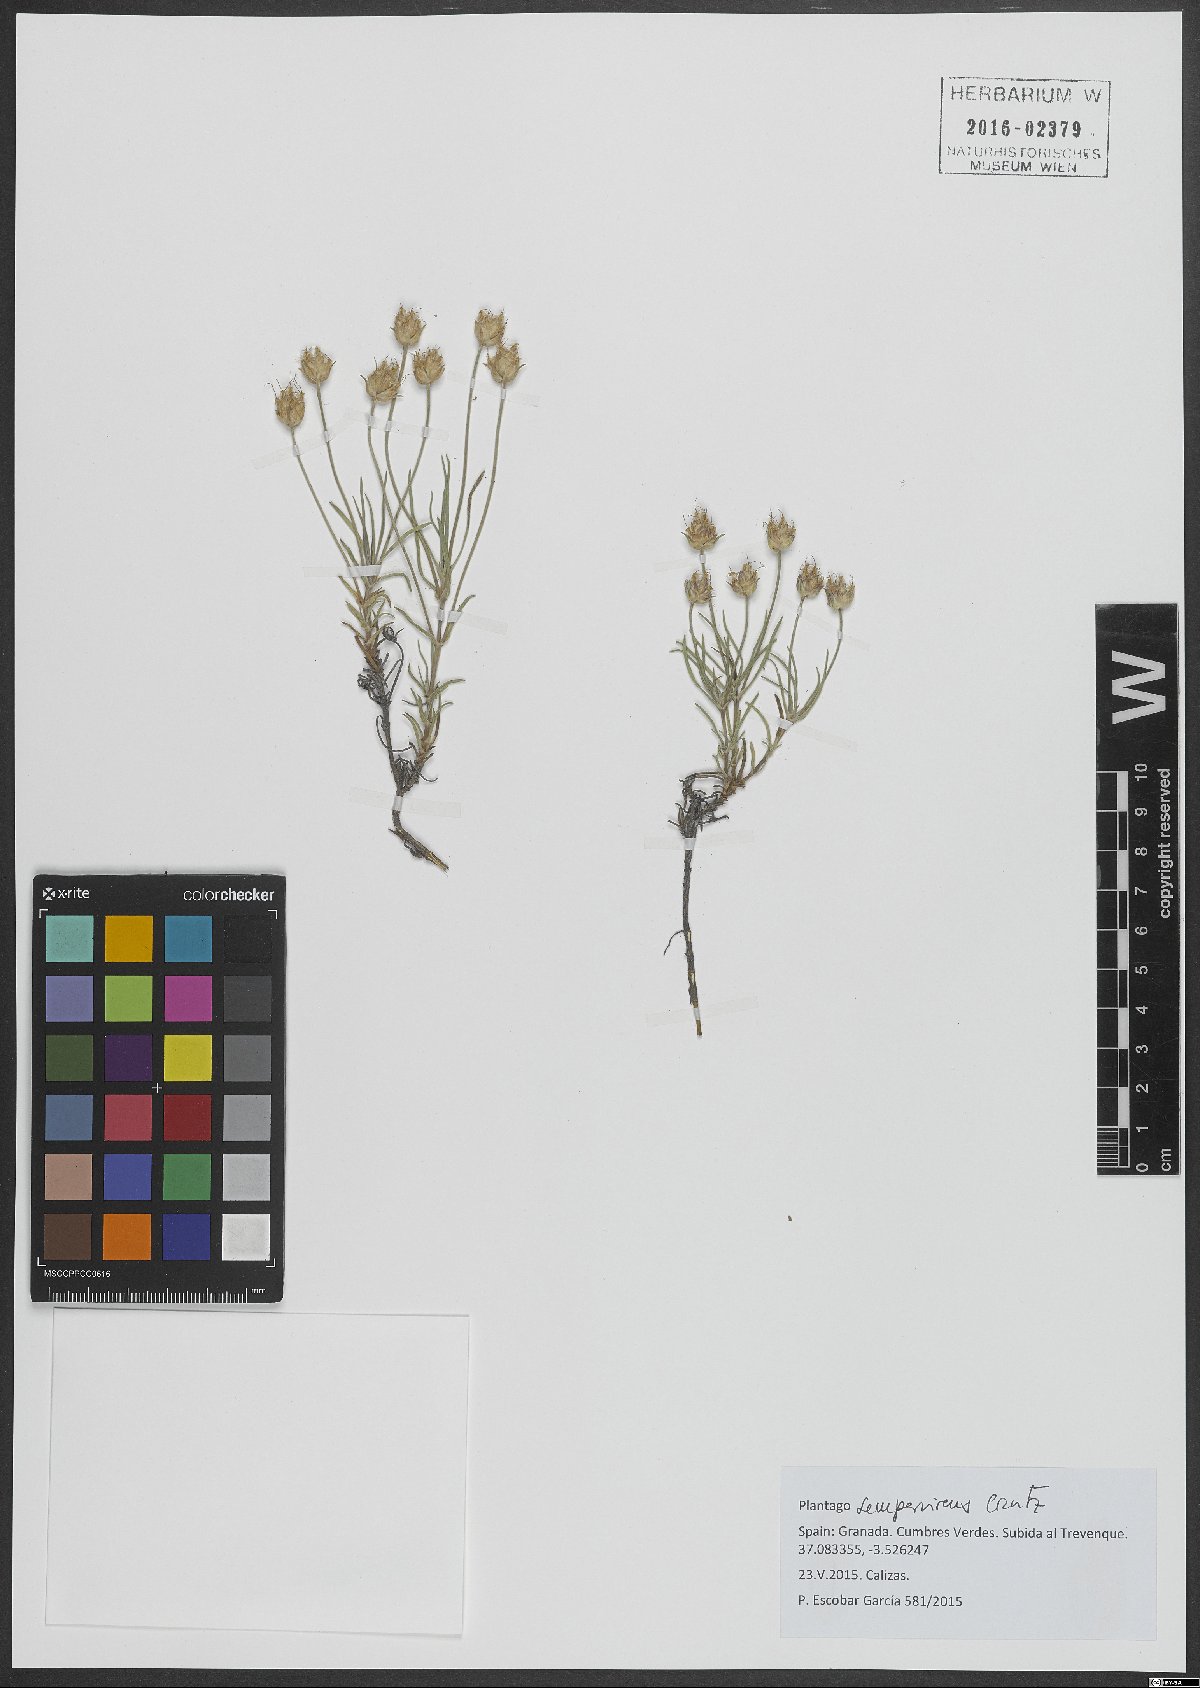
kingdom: Plantae
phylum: Tracheophyta
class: Magnoliopsida
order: Lamiales
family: Plantaginaceae
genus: Plantago
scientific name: Plantago sempervirens
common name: Shrubby plantain
